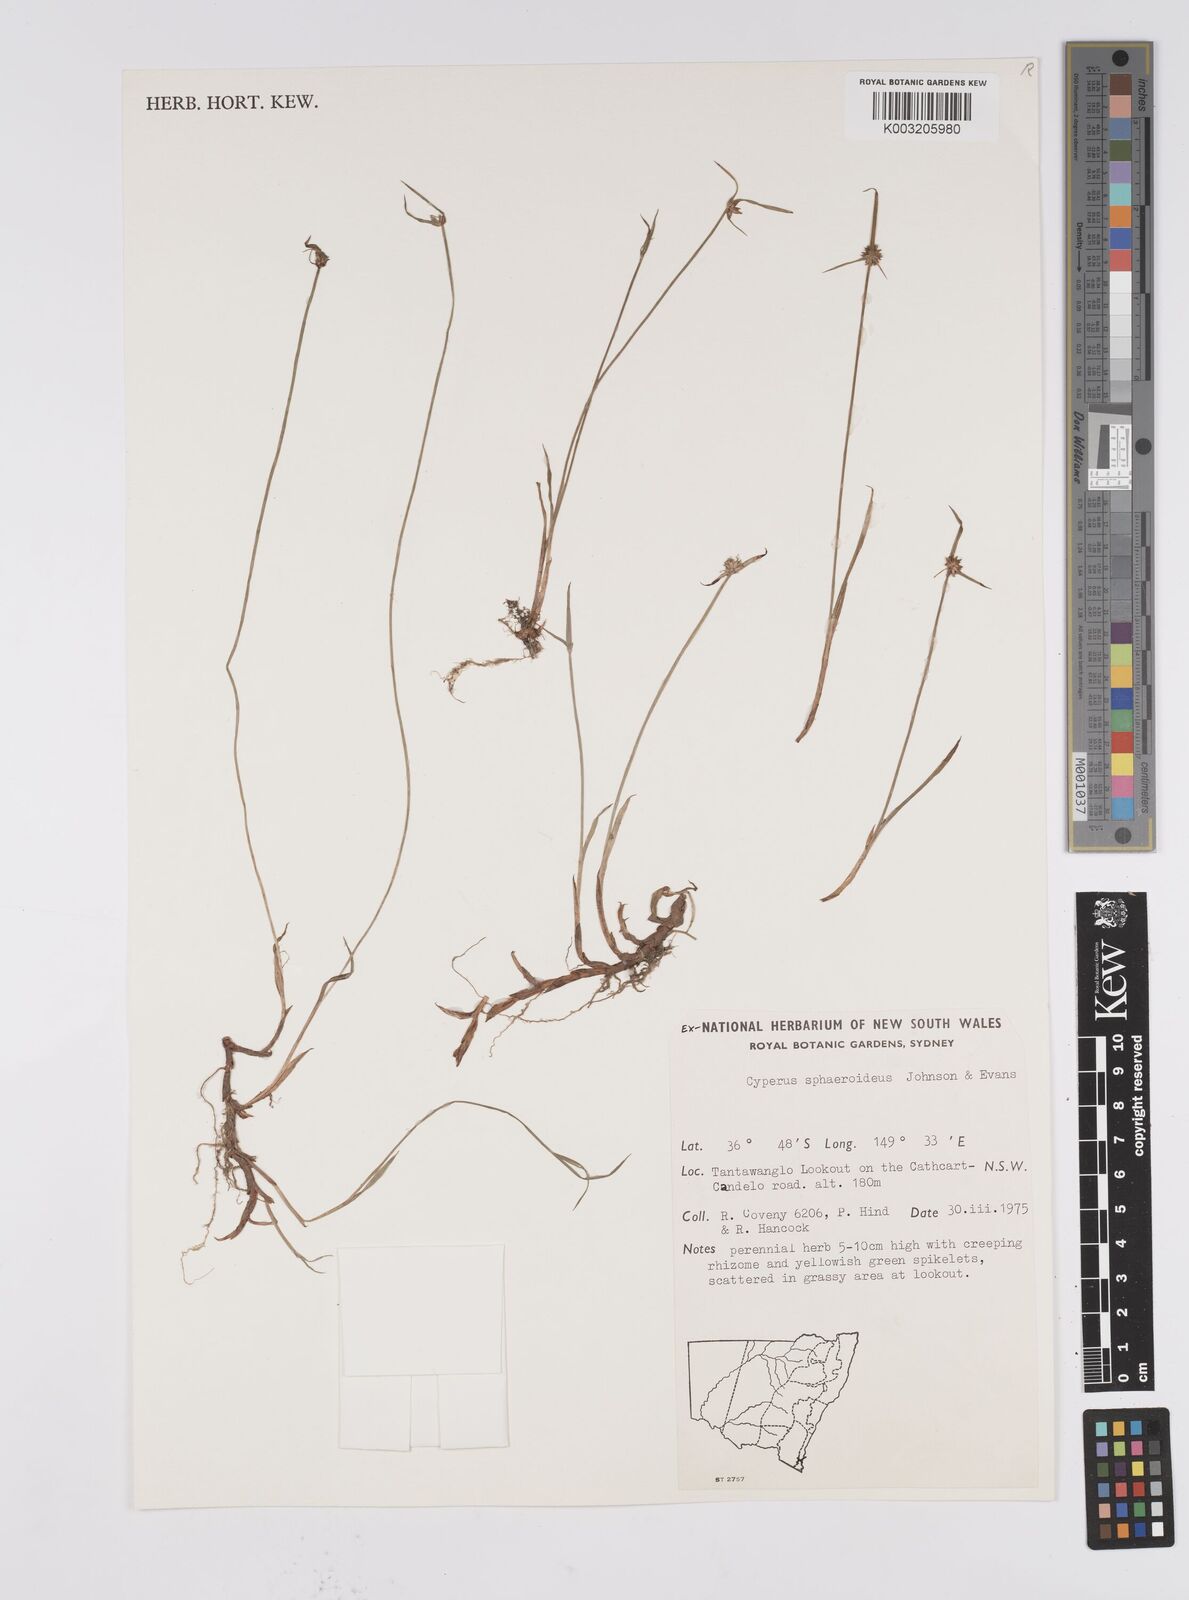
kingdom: Plantae
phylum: Tracheophyta
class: Liliopsida
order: Poales
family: Cyperaceae
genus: Cyperus
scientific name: Cyperus longus
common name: Galingale
